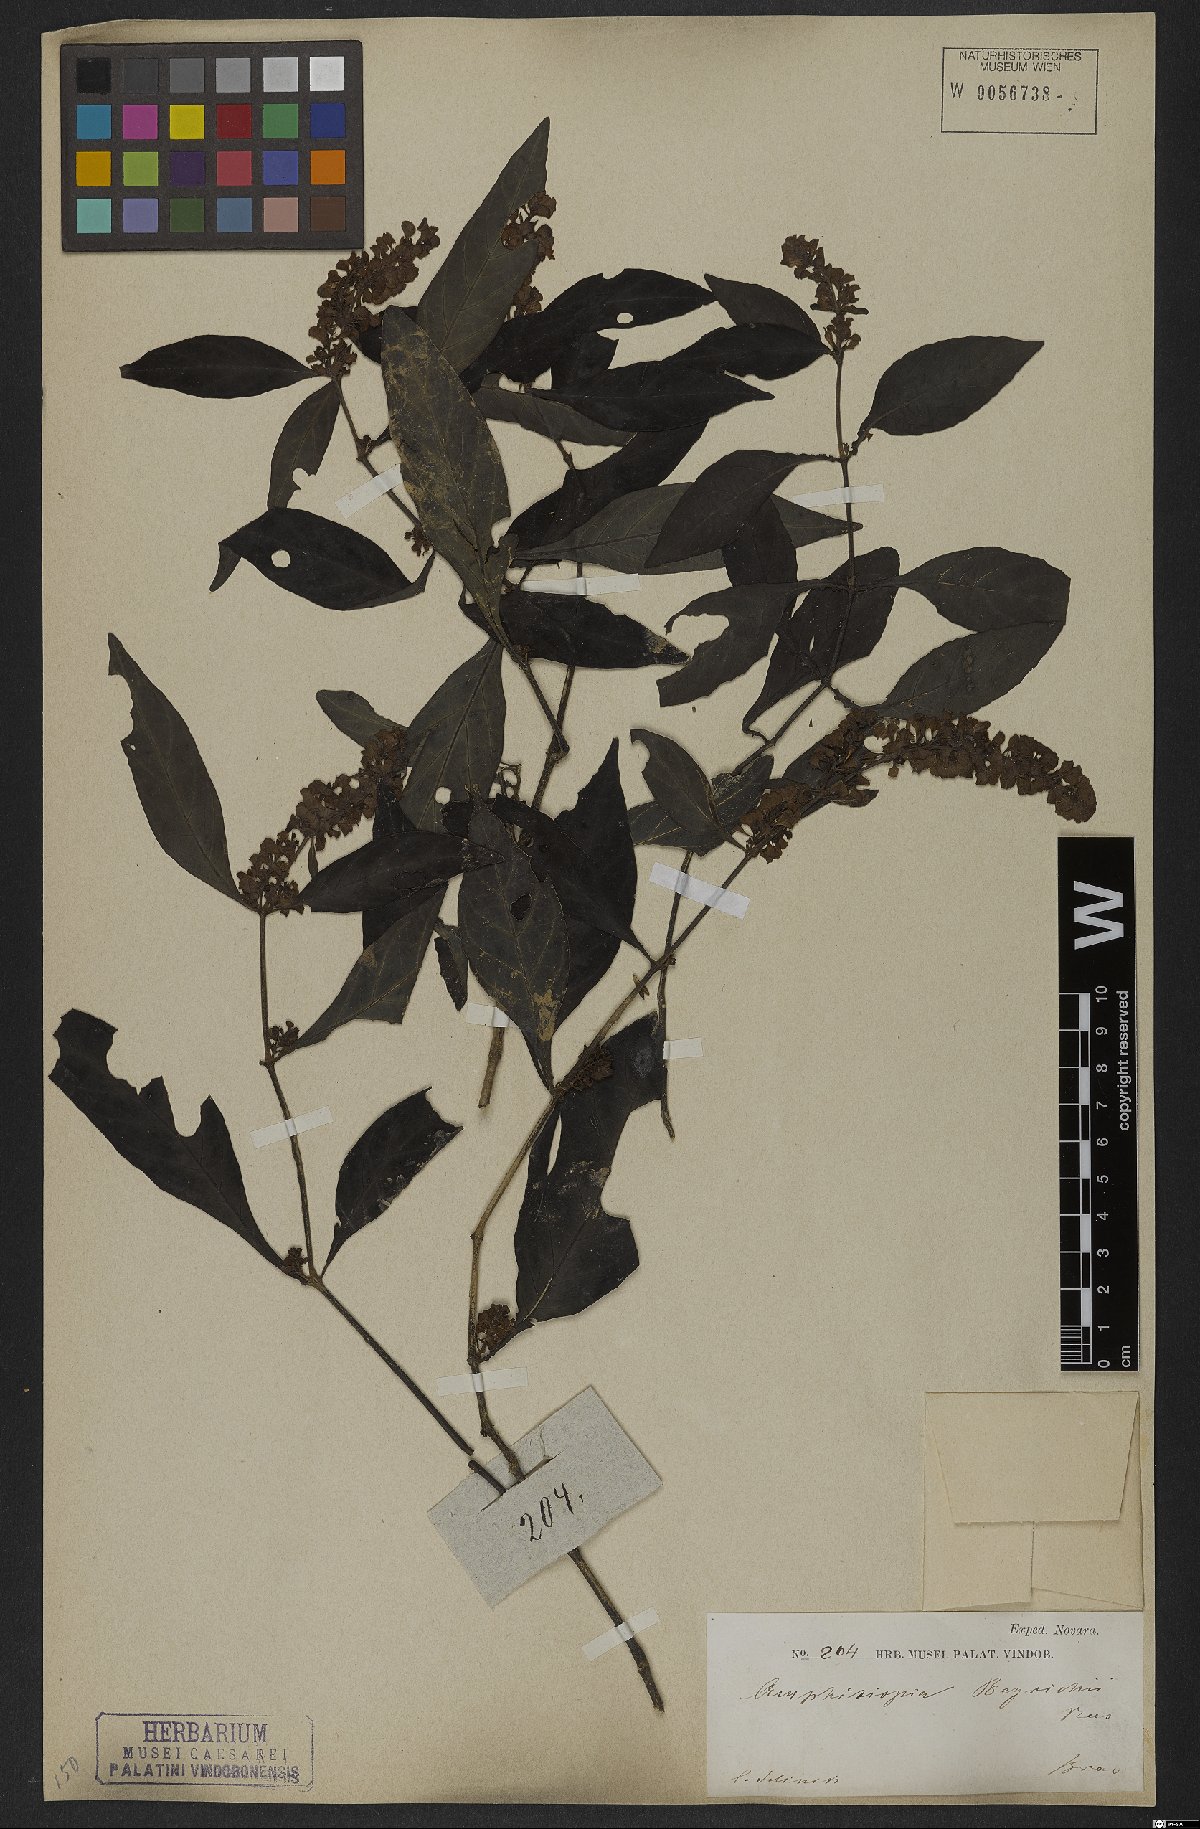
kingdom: Plantae
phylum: Tracheophyta
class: Magnoliopsida
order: Lamiales
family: Acanthaceae
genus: Dianthera
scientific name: Dianthera brasiliensis
